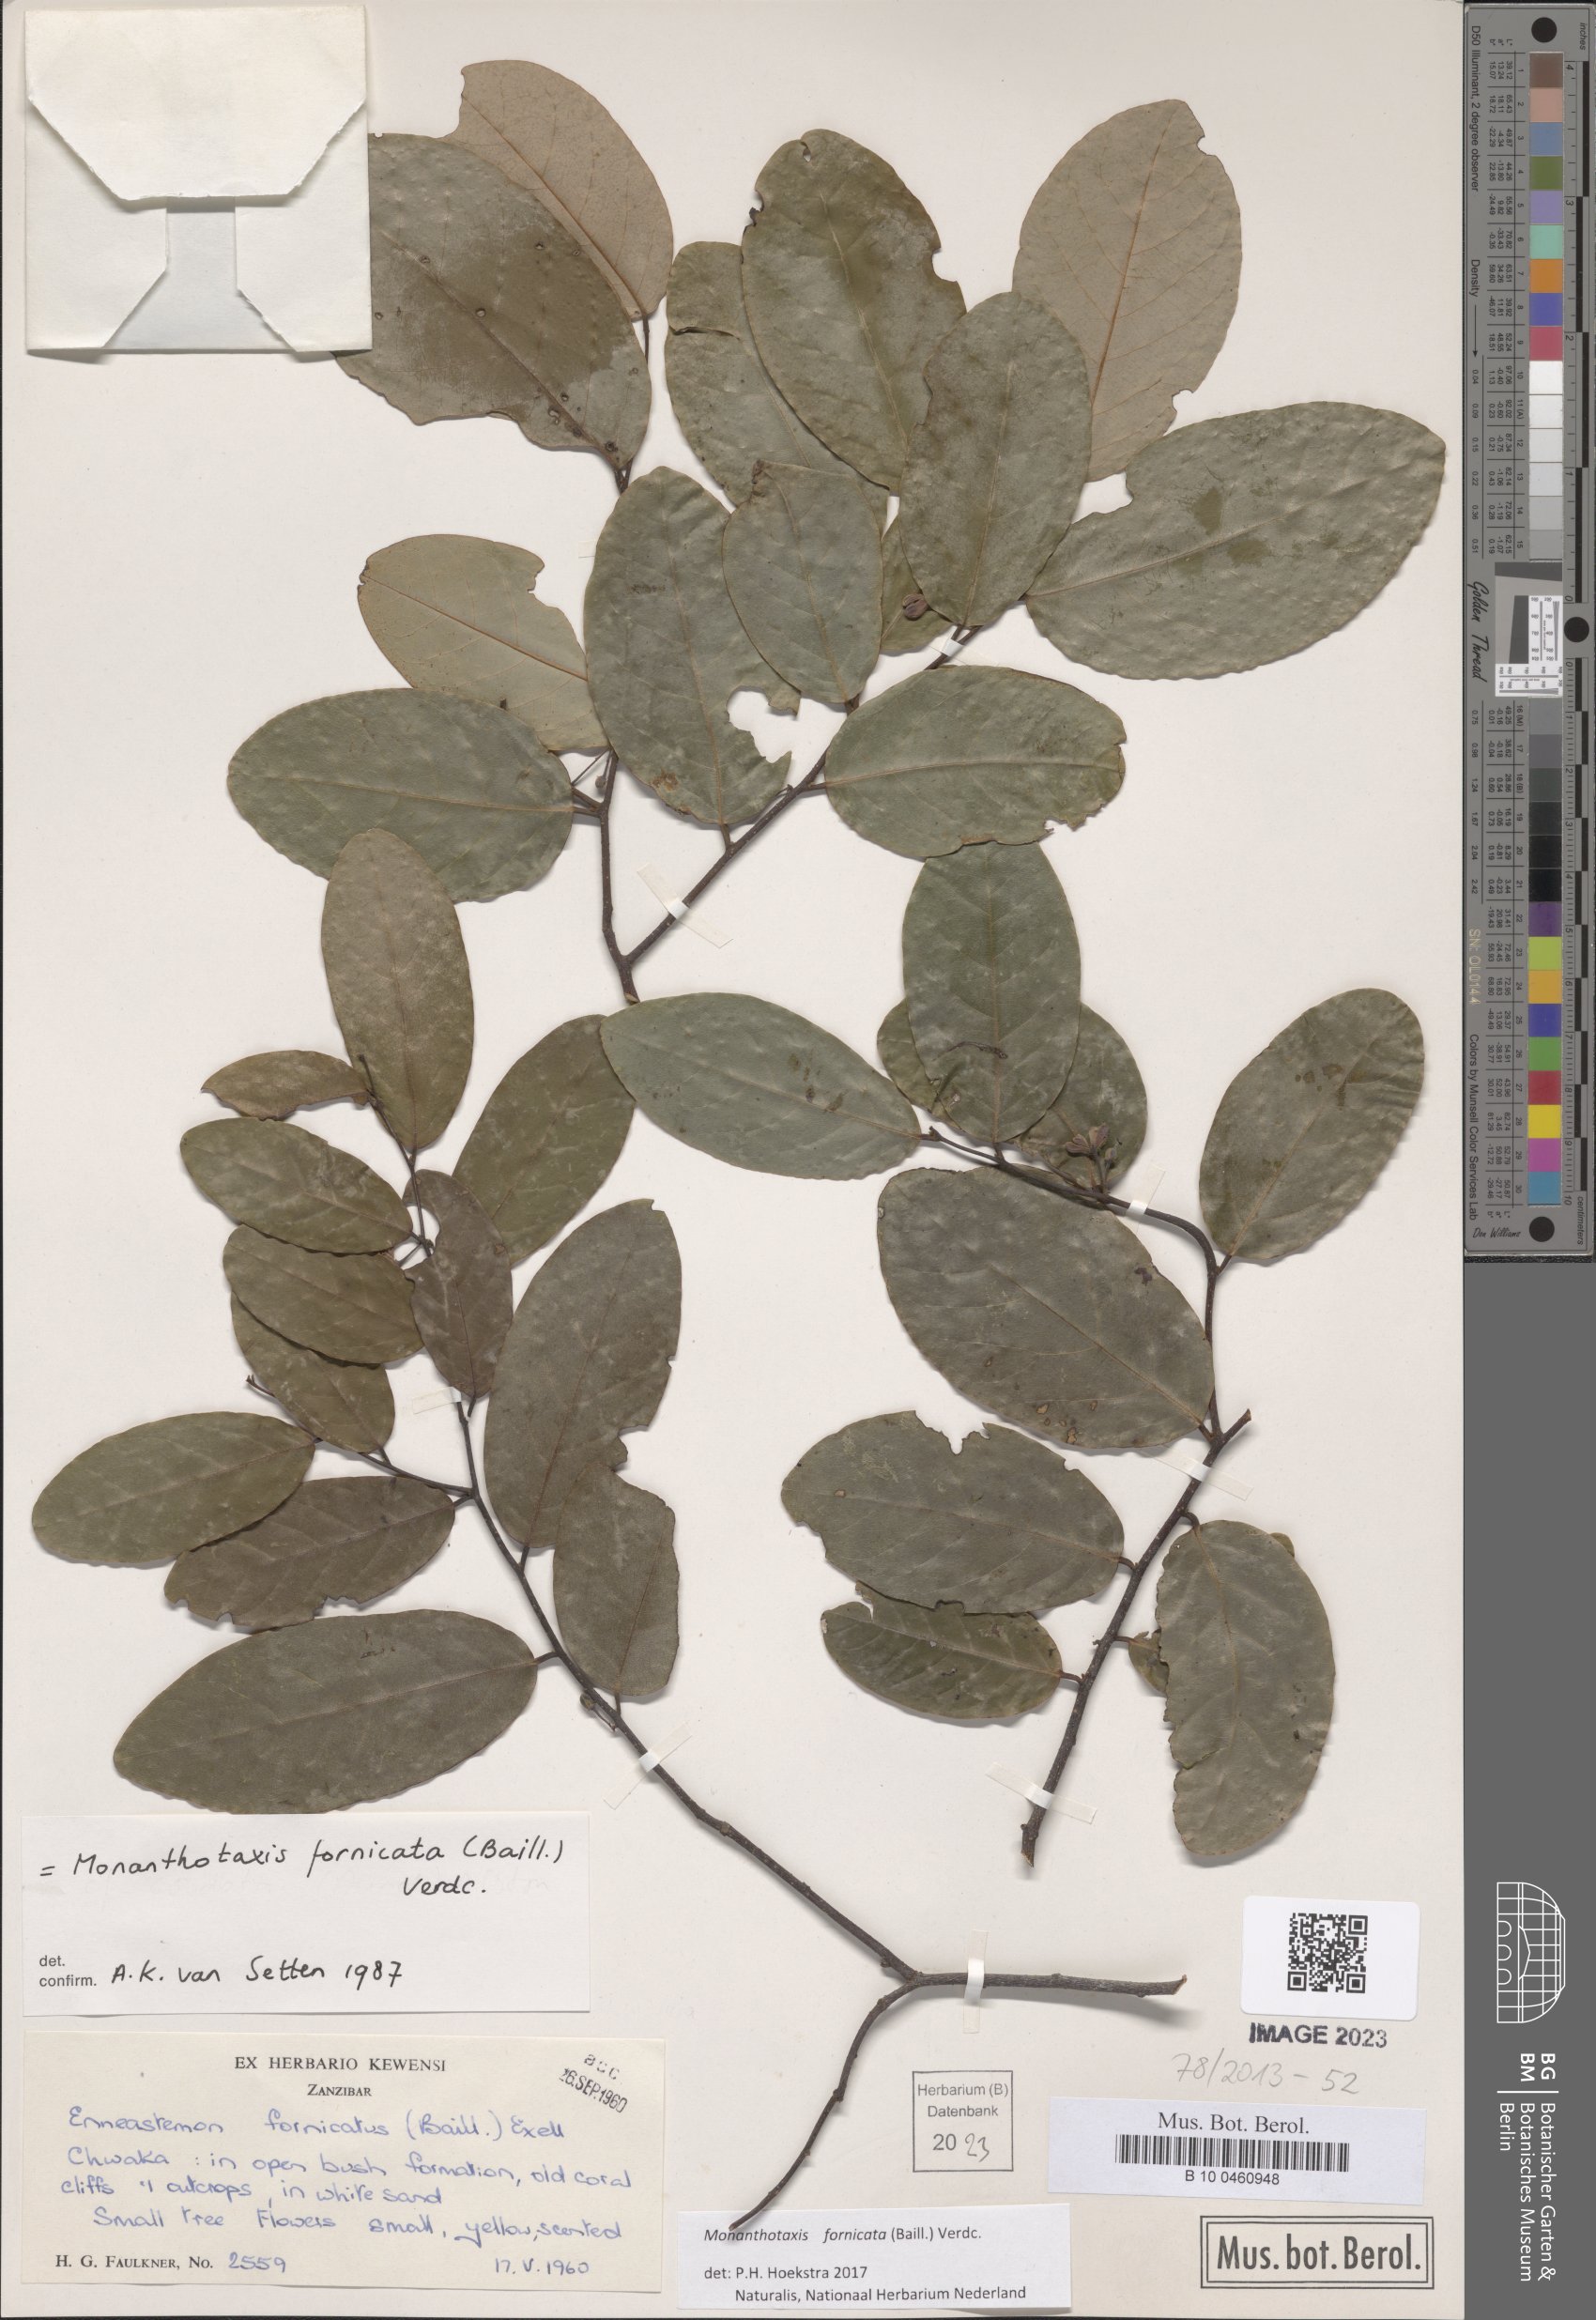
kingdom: Plantae
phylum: Tracheophyta
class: Magnoliopsida
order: Magnoliales
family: Annonaceae
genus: Monanthotaxis
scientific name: Monanthotaxis fornicata
